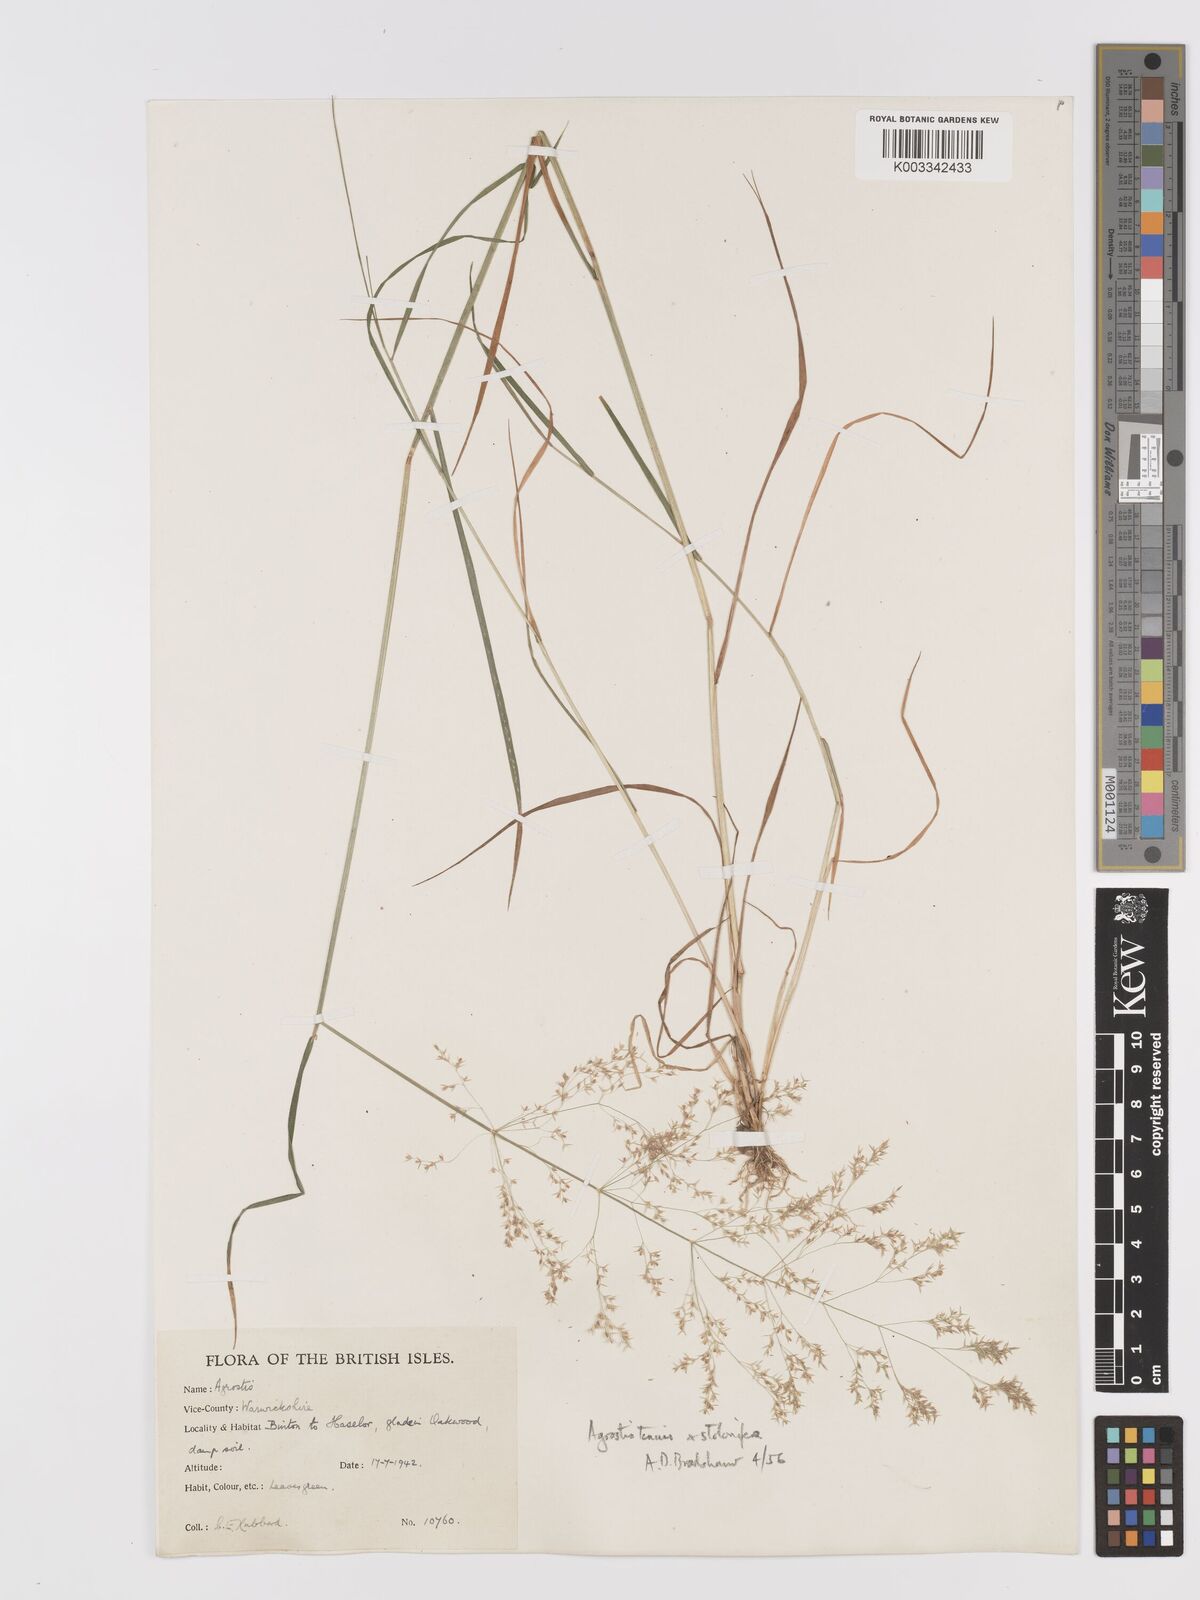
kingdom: Plantae
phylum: Tracheophyta
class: Liliopsida
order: Poales
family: Poaceae
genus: Agrostis
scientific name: Agrostis capillaris
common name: Colonial bentgrass
